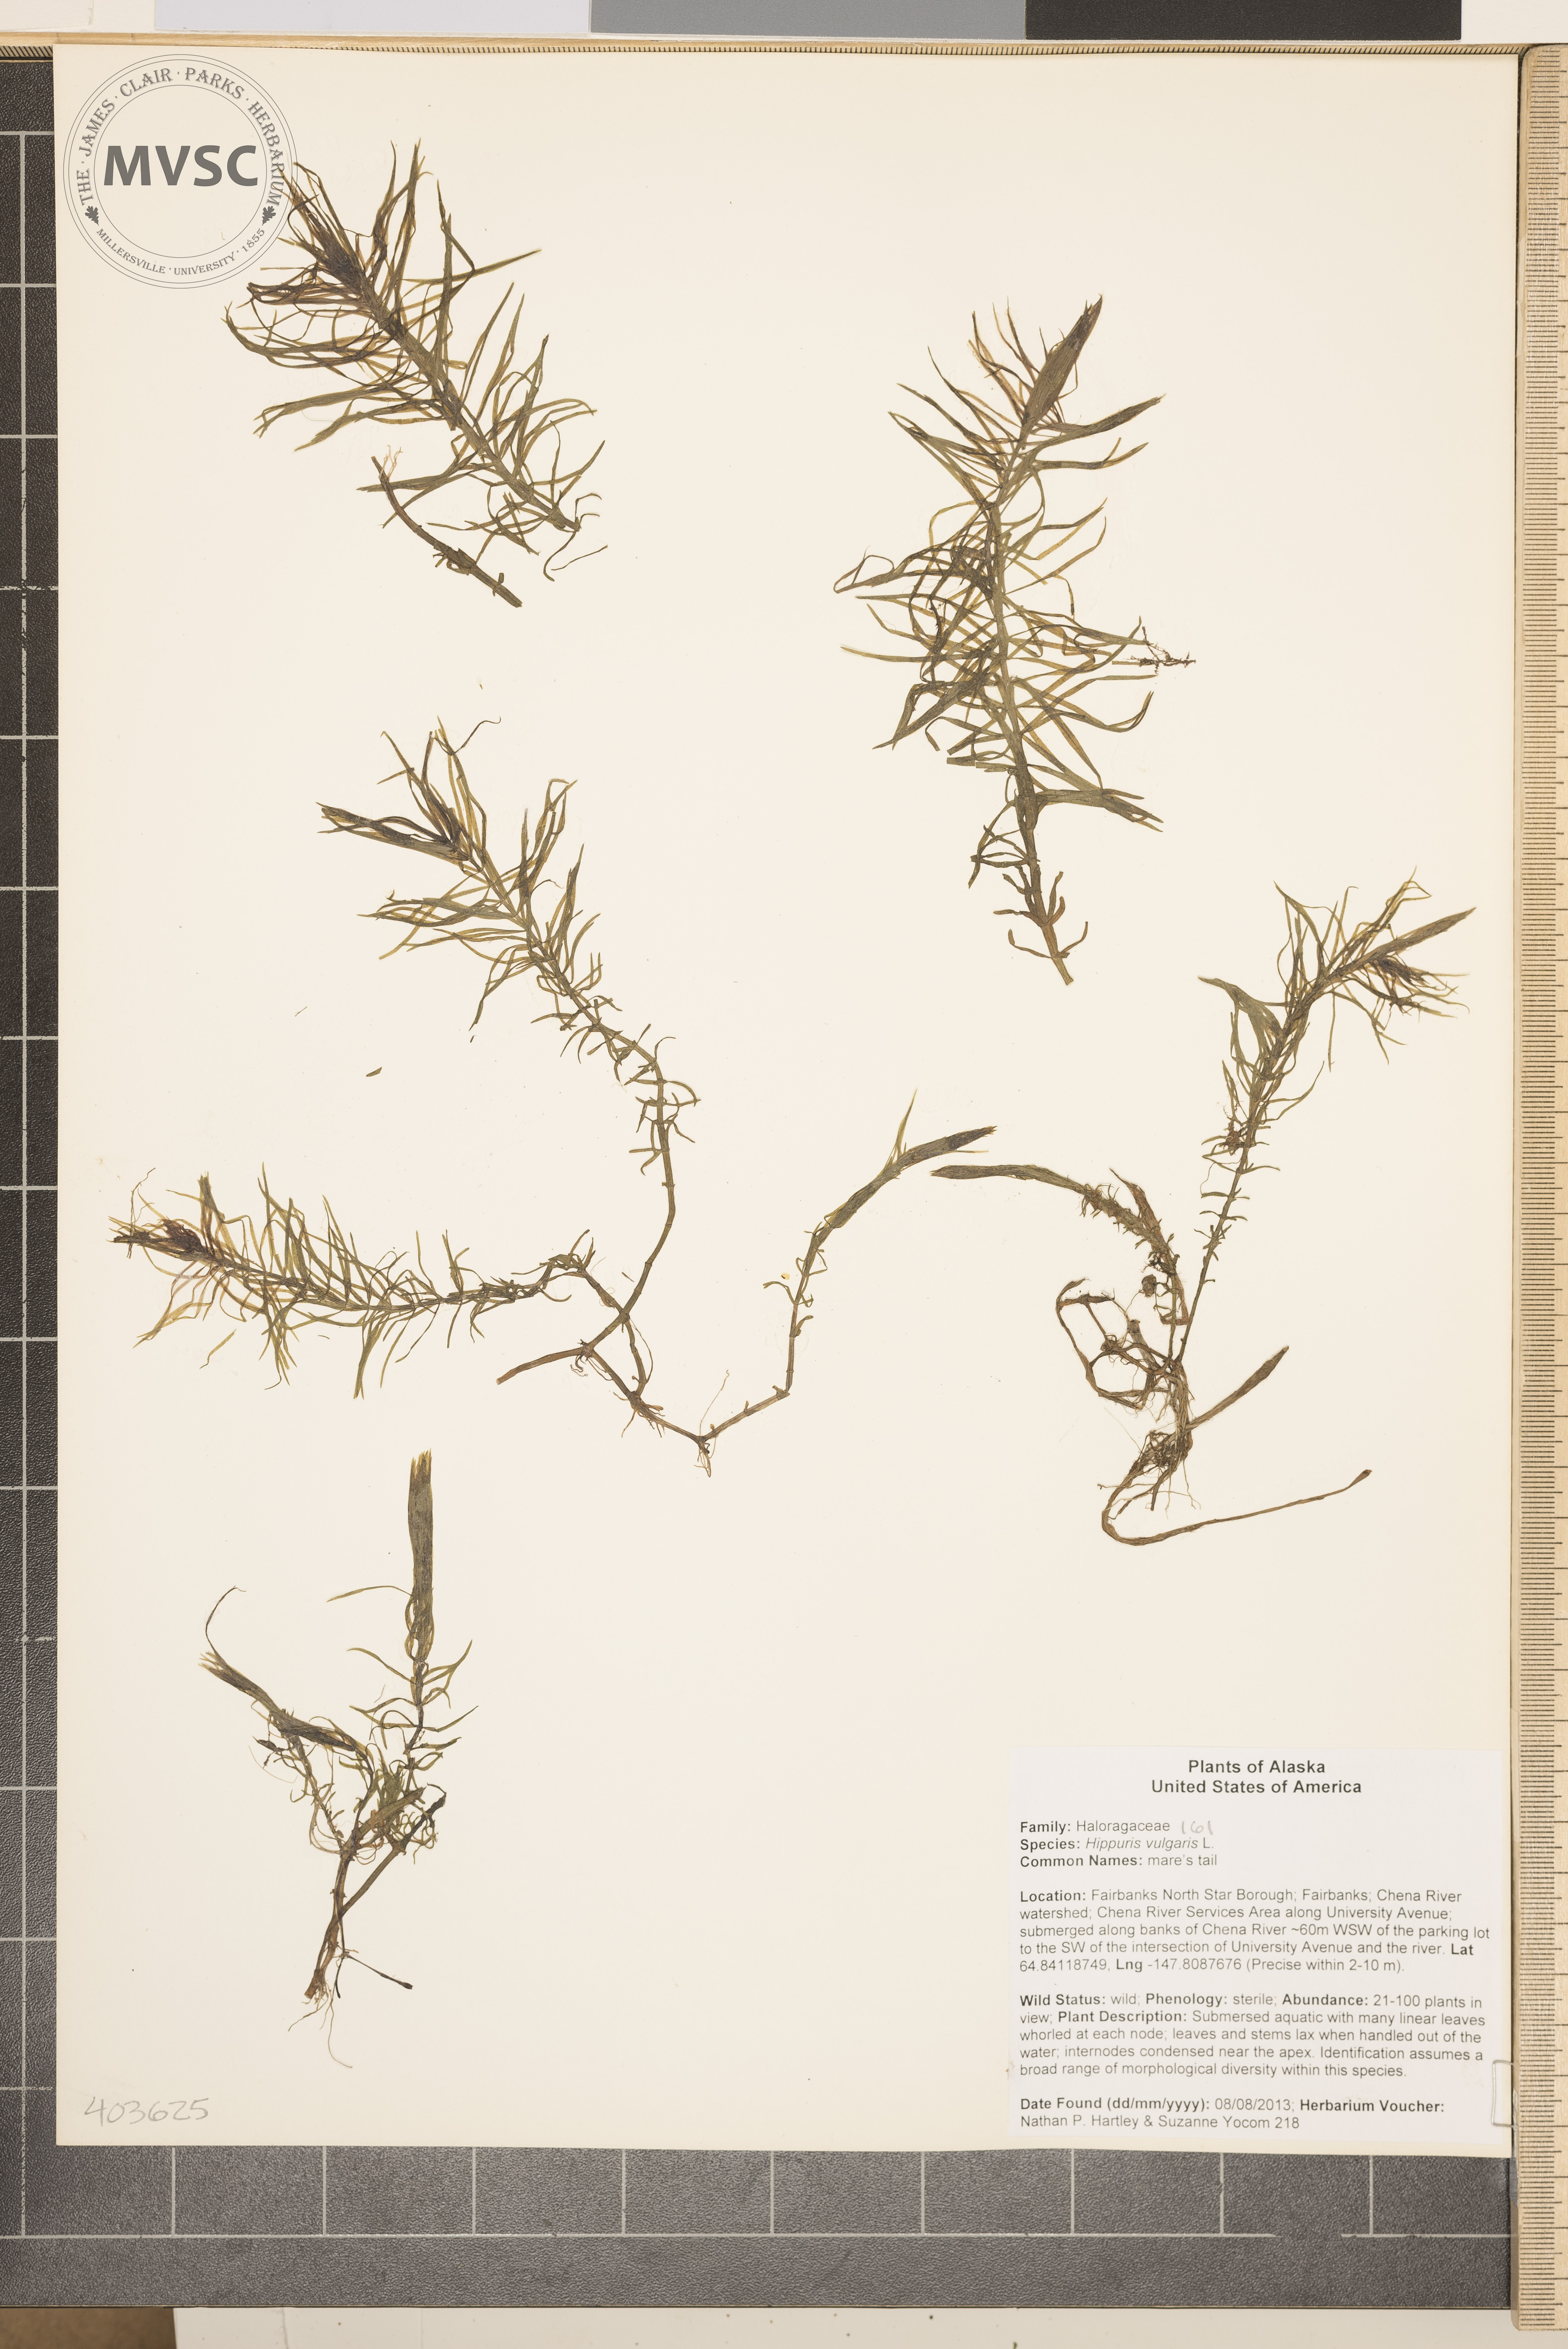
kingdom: Plantae
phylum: Tracheophyta
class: Magnoliopsida
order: Lamiales
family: Plantaginaceae
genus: Hippuris
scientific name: Hippuris vulgaris
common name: Mare's tail
